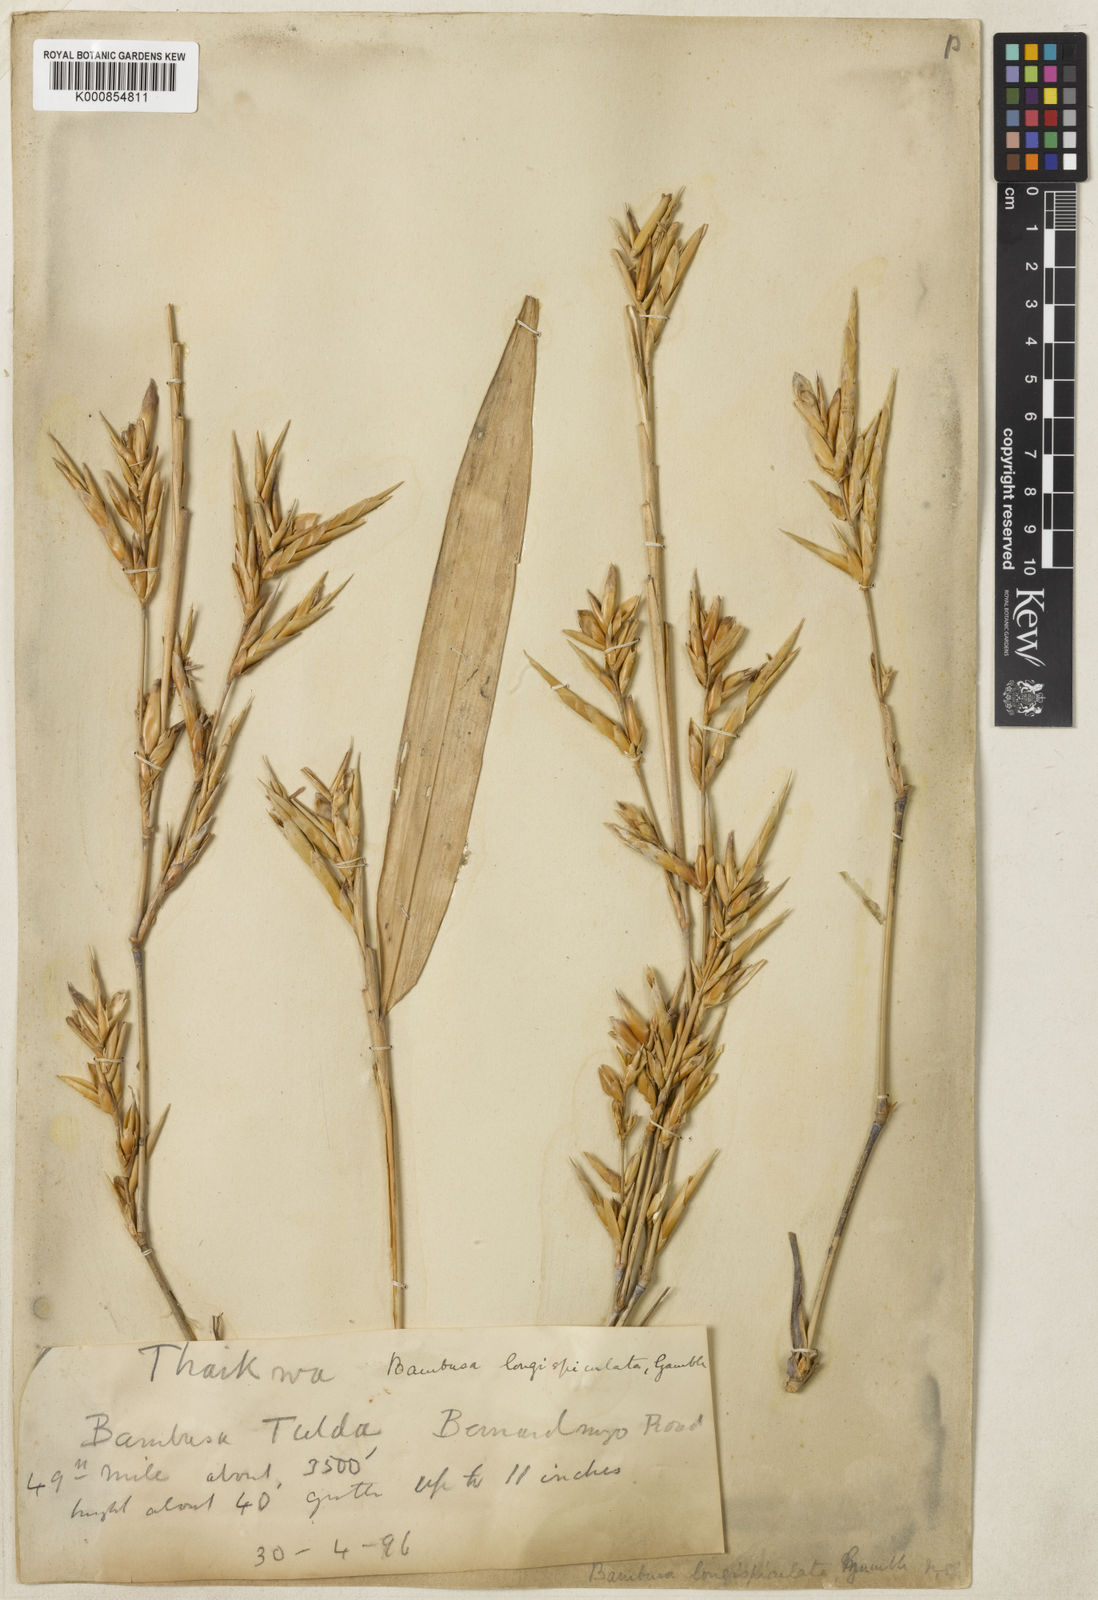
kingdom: Plantae
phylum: Tracheophyta
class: Liliopsida
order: Poales
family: Poaceae
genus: Bambusa
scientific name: Bambusa
